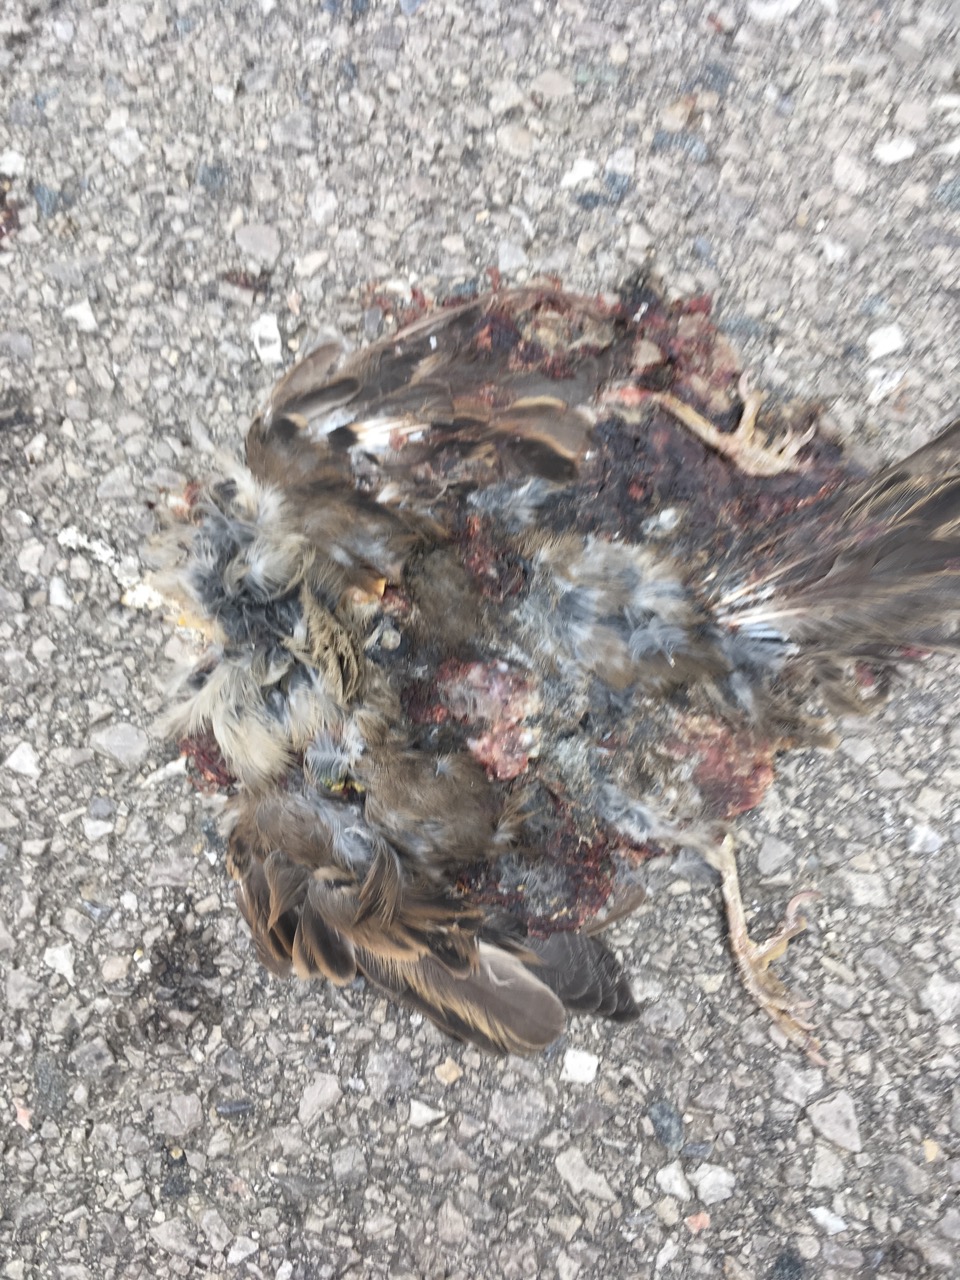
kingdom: Animalia
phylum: Chordata
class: Aves
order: Passeriformes
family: Passeridae
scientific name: Passeridae
